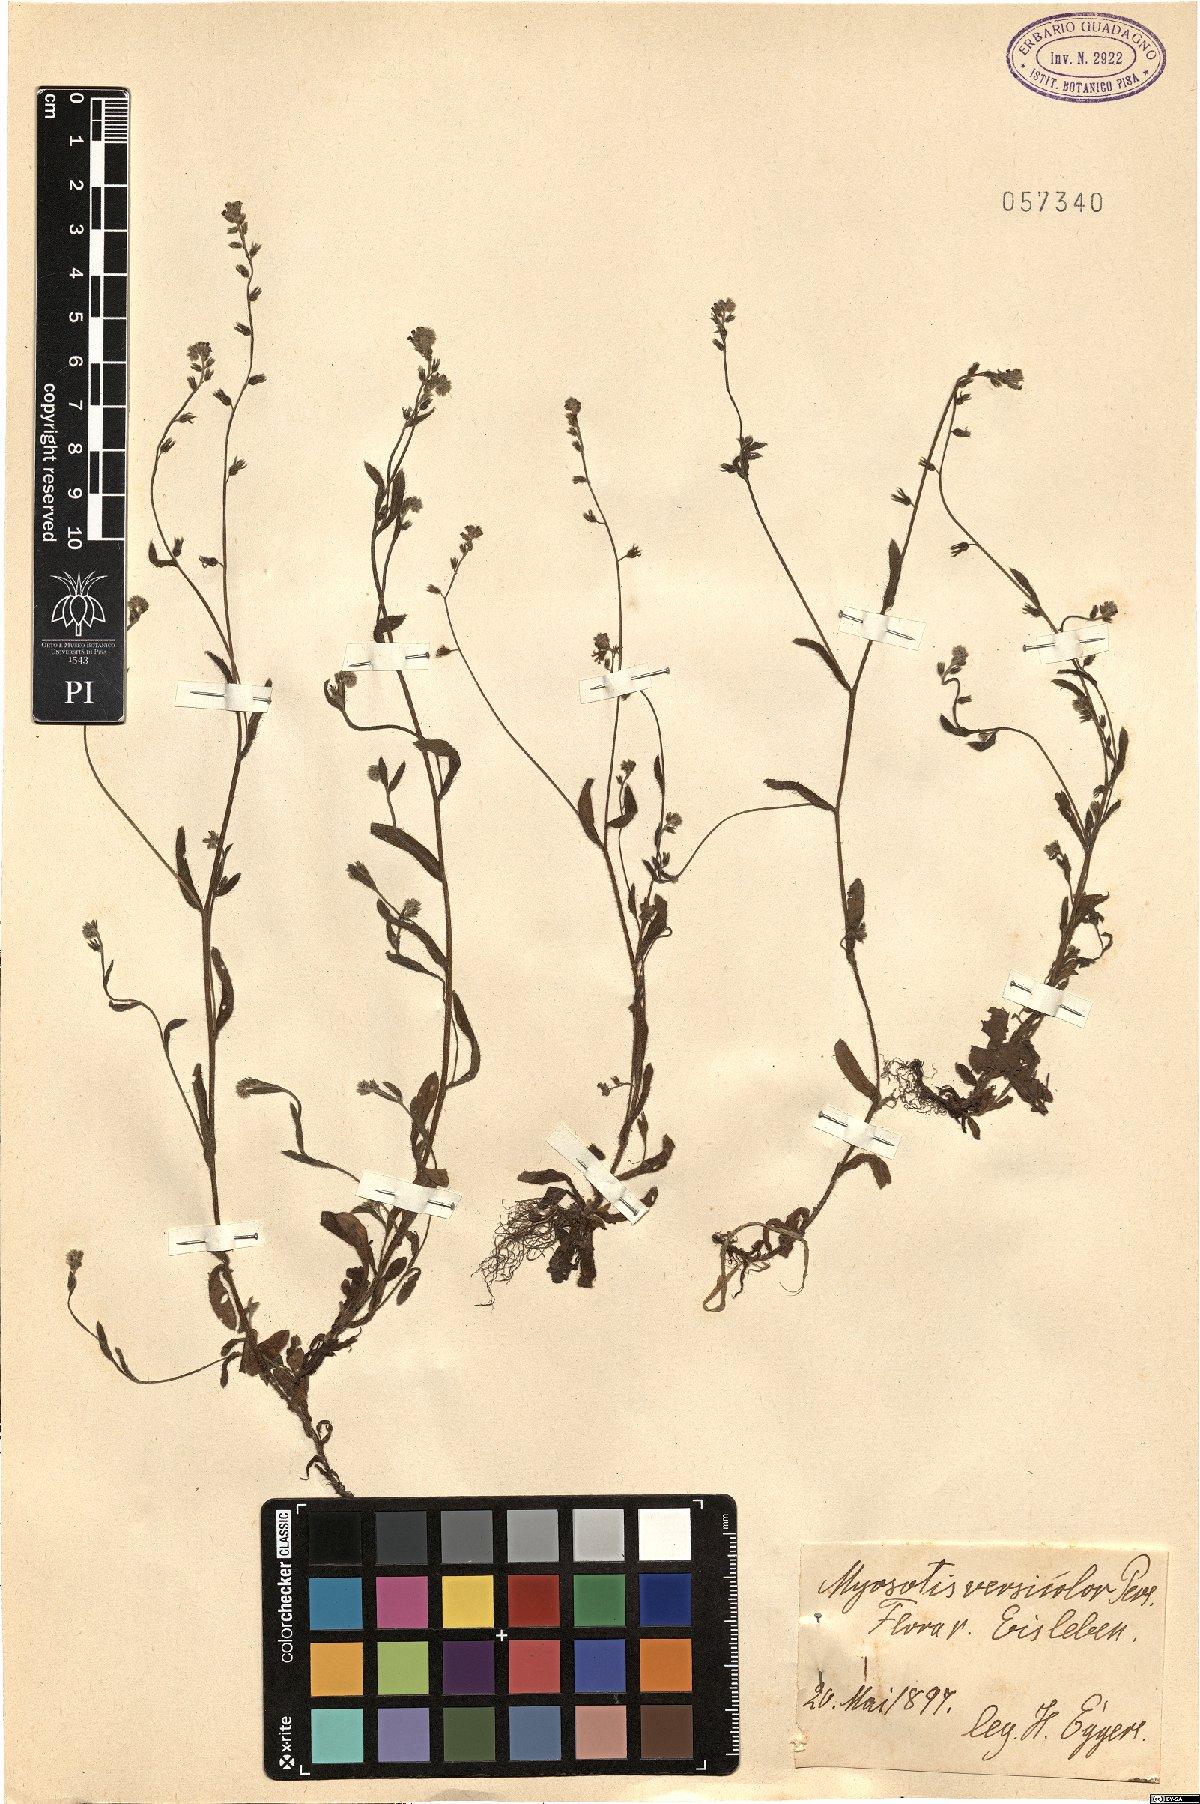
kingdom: Plantae
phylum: Tracheophyta
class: Magnoliopsida
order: Boraginales
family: Boraginaceae
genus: Myosotis
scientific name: Myosotis discolor
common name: Changing forget-me-not
